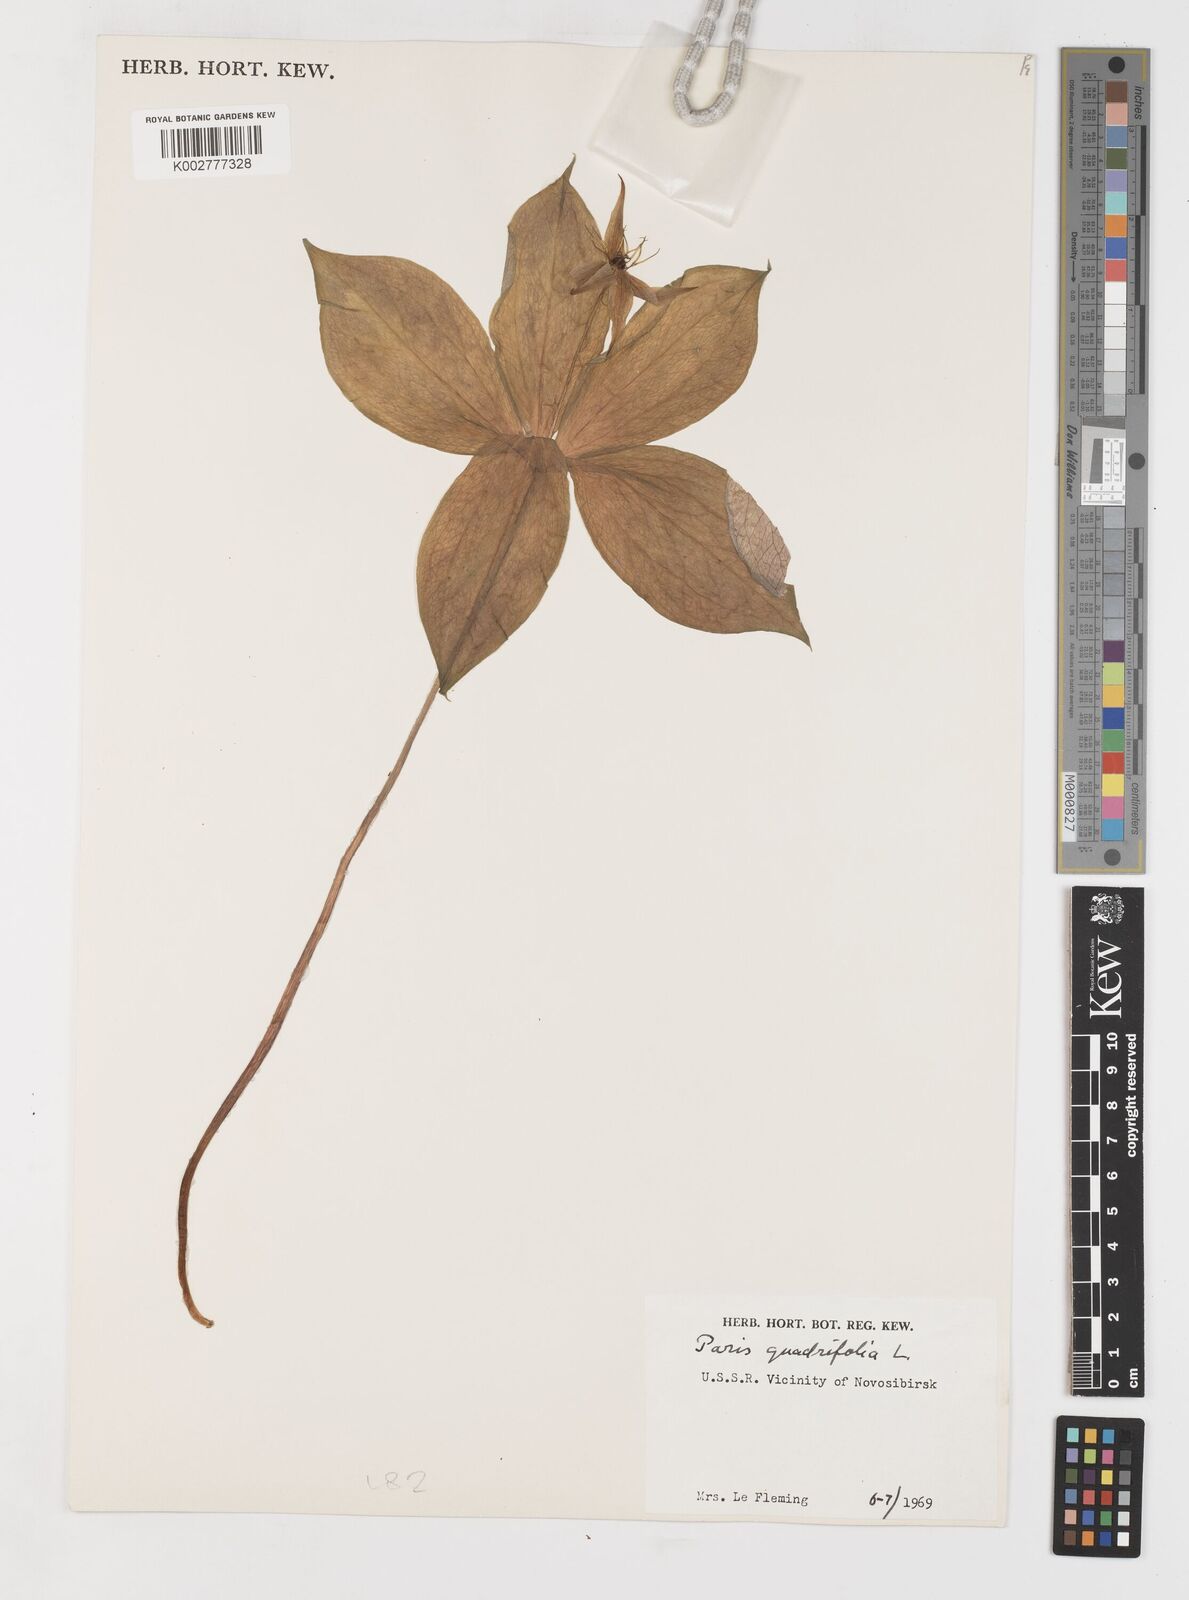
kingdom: Plantae
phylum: Tracheophyta
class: Liliopsida
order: Liliales
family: Melanthiaceae
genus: Paris
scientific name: Paris quadrifolia
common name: Herb-paris
